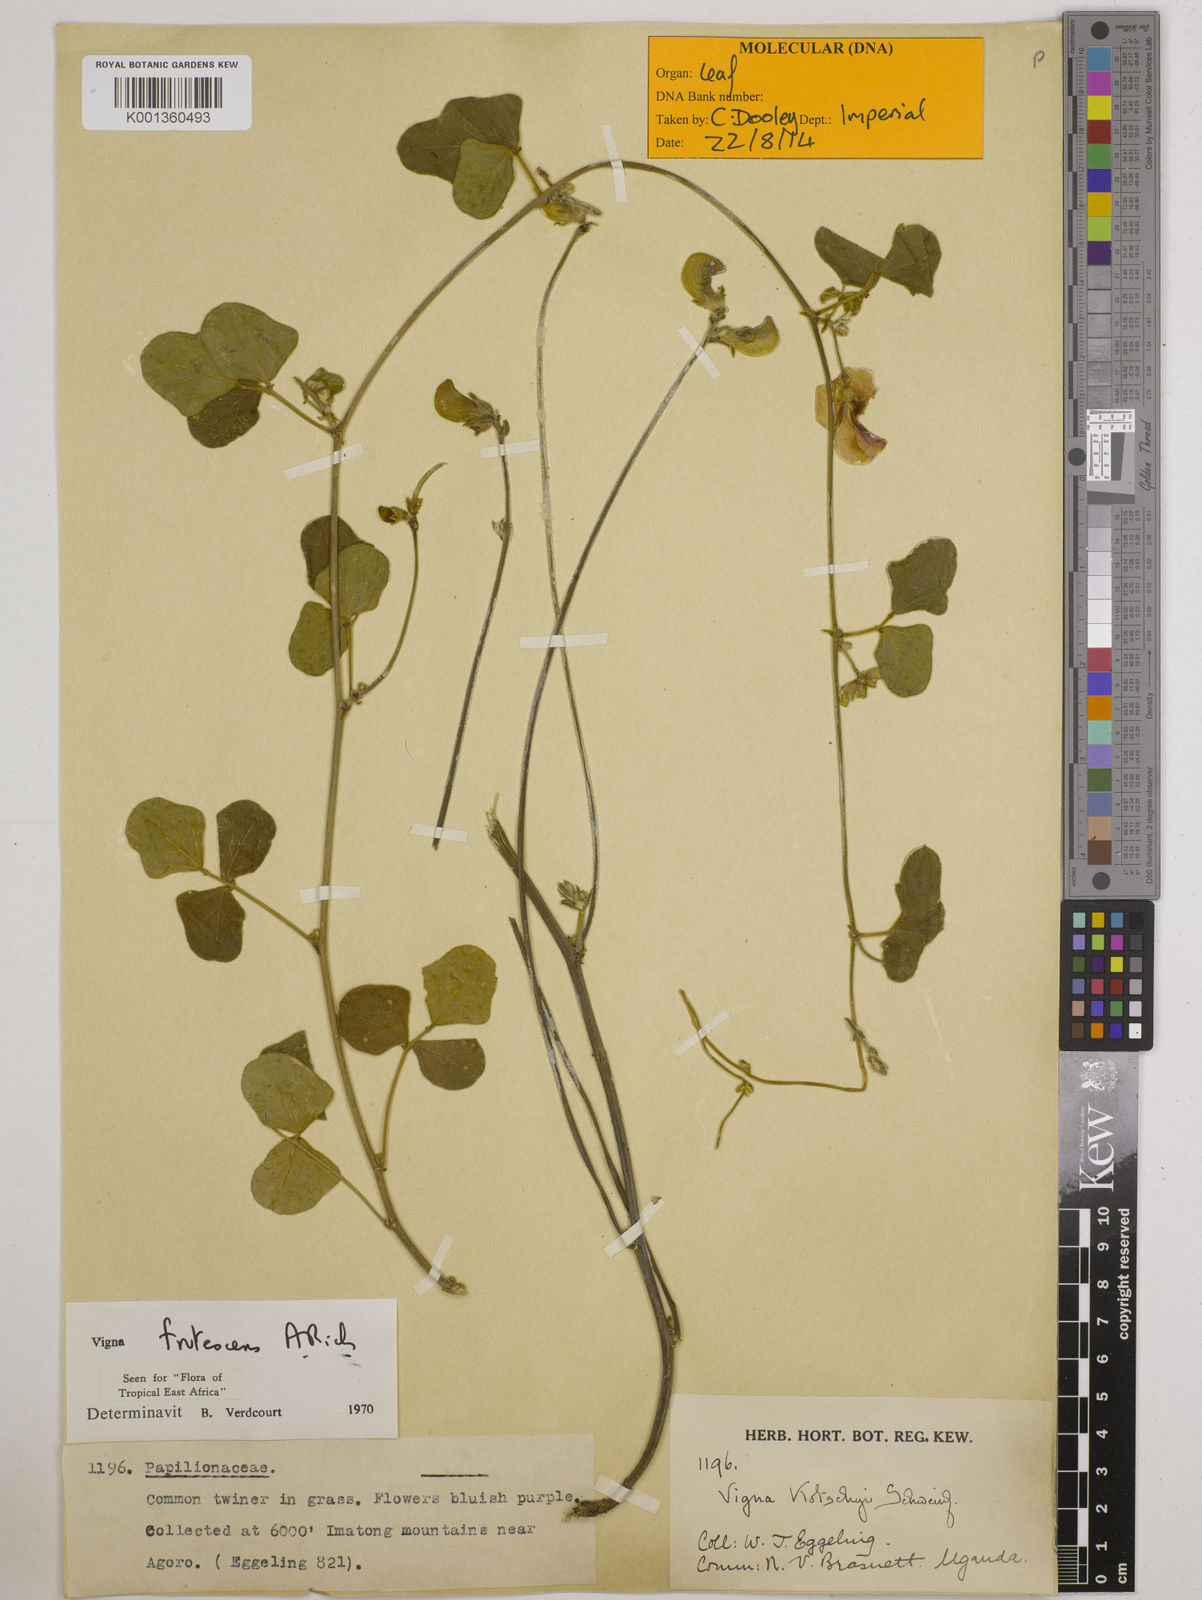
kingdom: Plantae
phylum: Tracheophyta
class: Magnoliopsida
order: Fabales
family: Fabaceae
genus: Vigna
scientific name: Vigna frutescens
